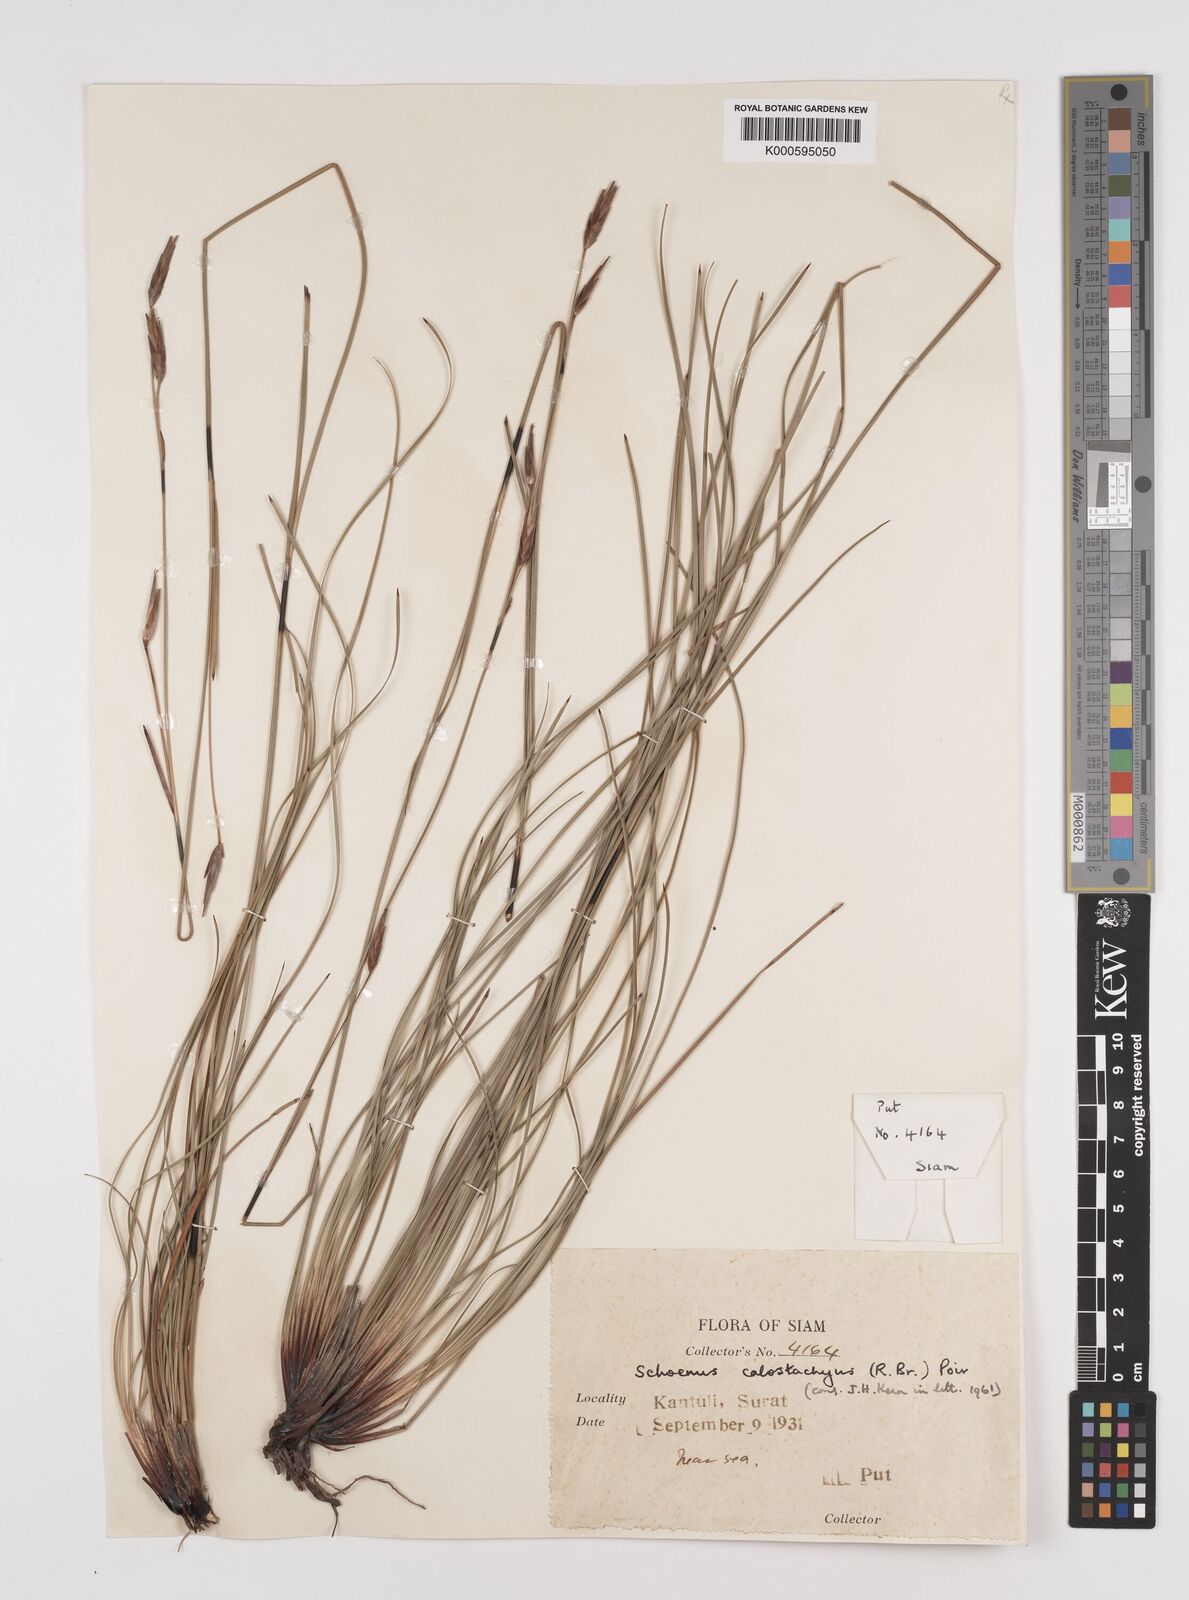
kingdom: Plantae
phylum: Tracheophyta
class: Liliopsida
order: Poales
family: Cyperaceae
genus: Schoenus
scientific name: Schoenus
